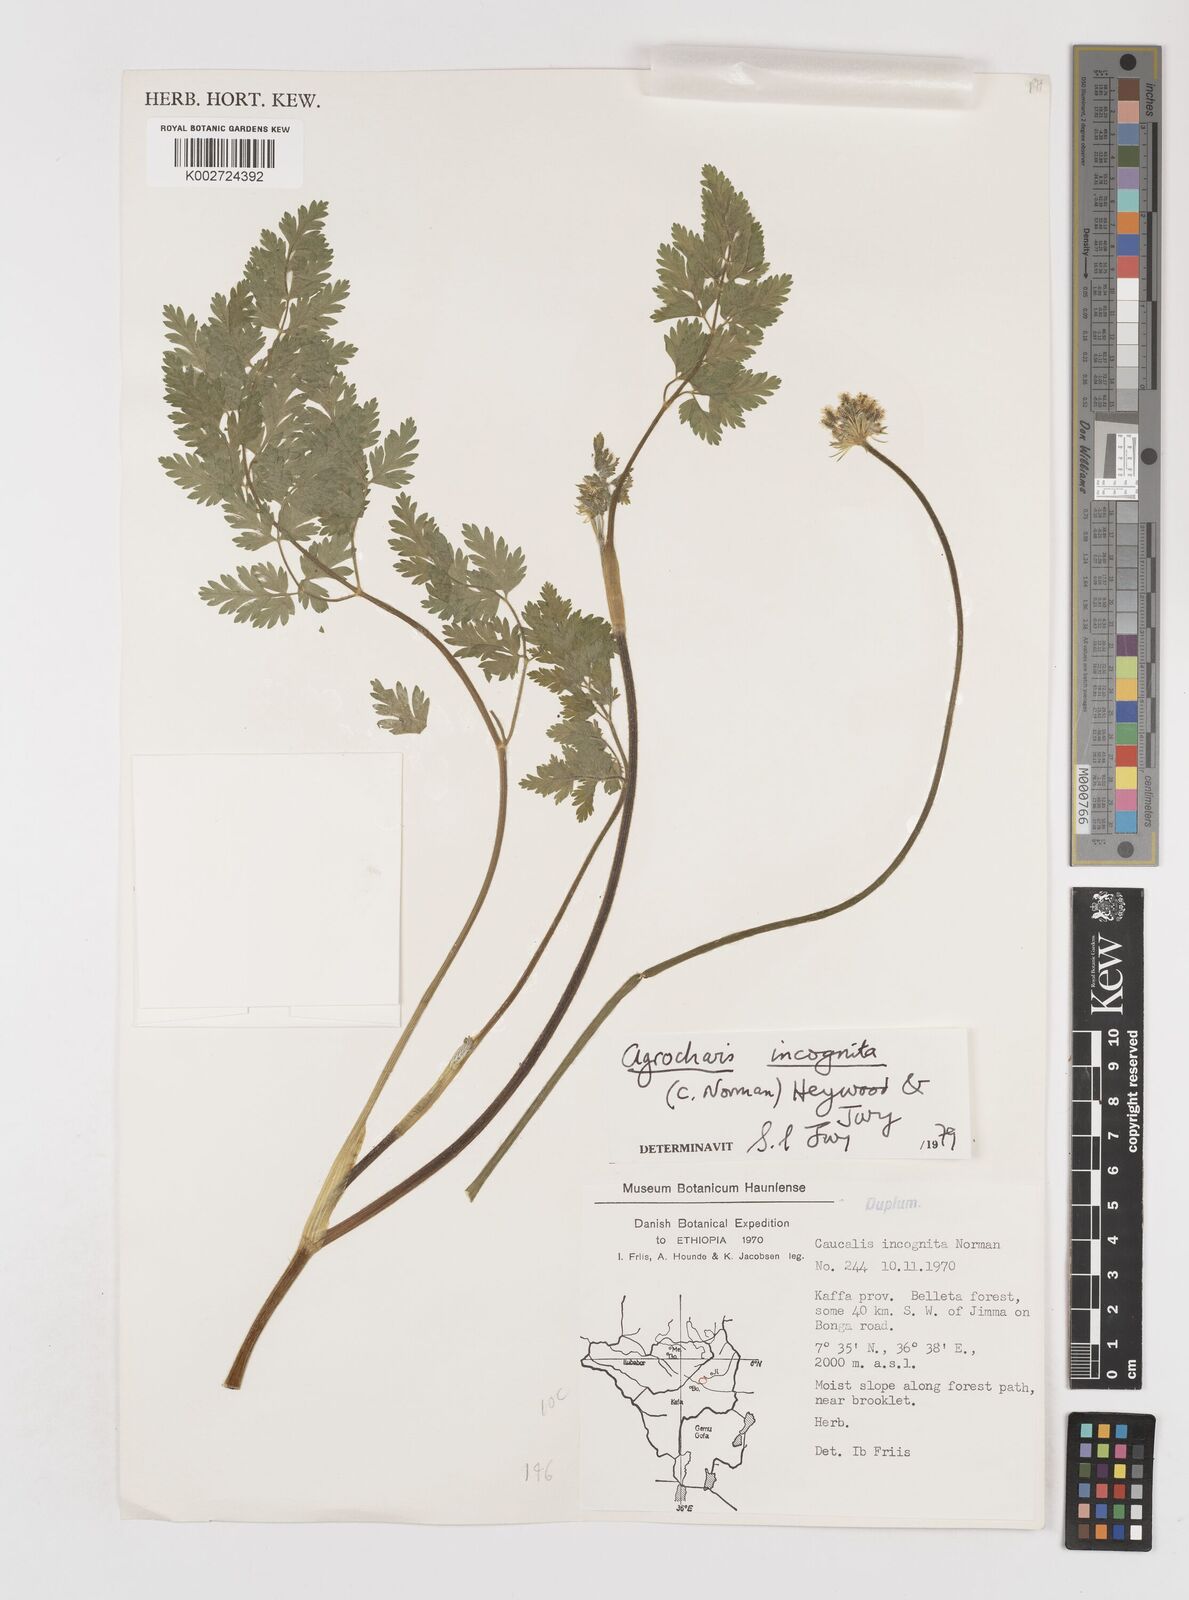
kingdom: Plantae
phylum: Tracheophyta
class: Magnoliopsida
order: Apiales
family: Apiaceae
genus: Daucus
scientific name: Daucus incognitus
